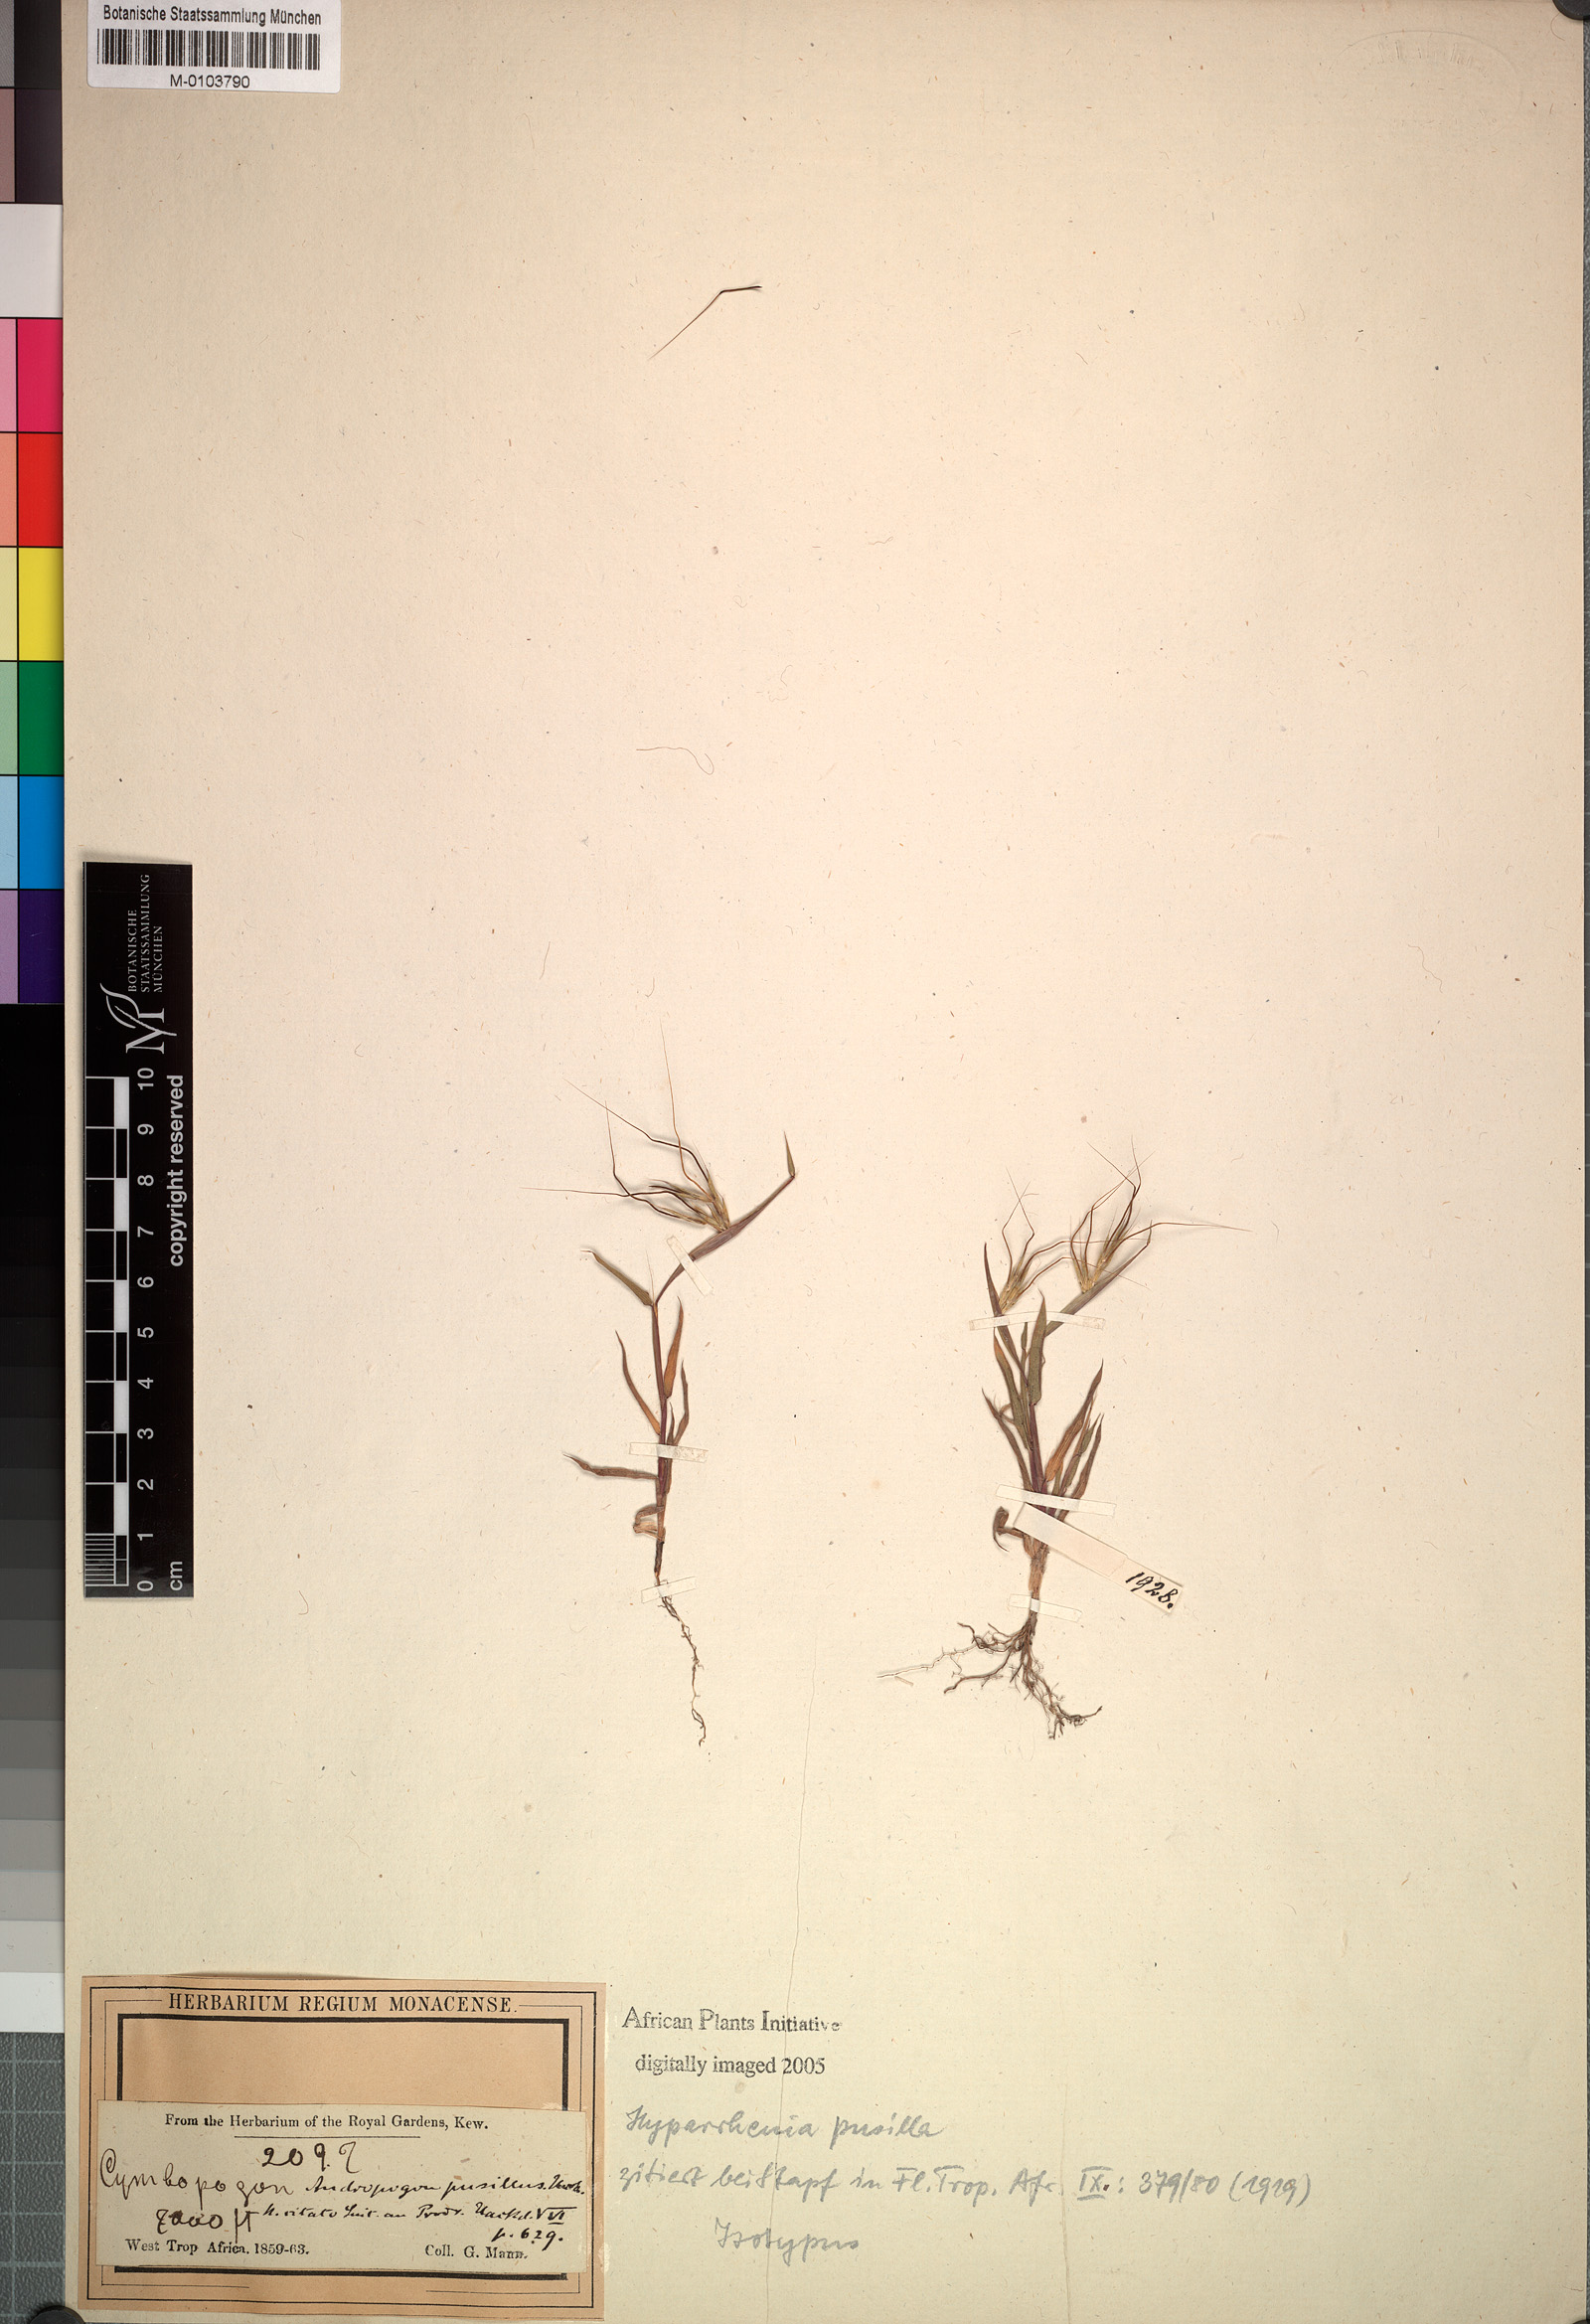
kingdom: Plantae
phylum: Tracheophyta
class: Liliopsida
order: Poales
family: Poaceae
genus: Andropogon
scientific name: Andropogon pusillus
